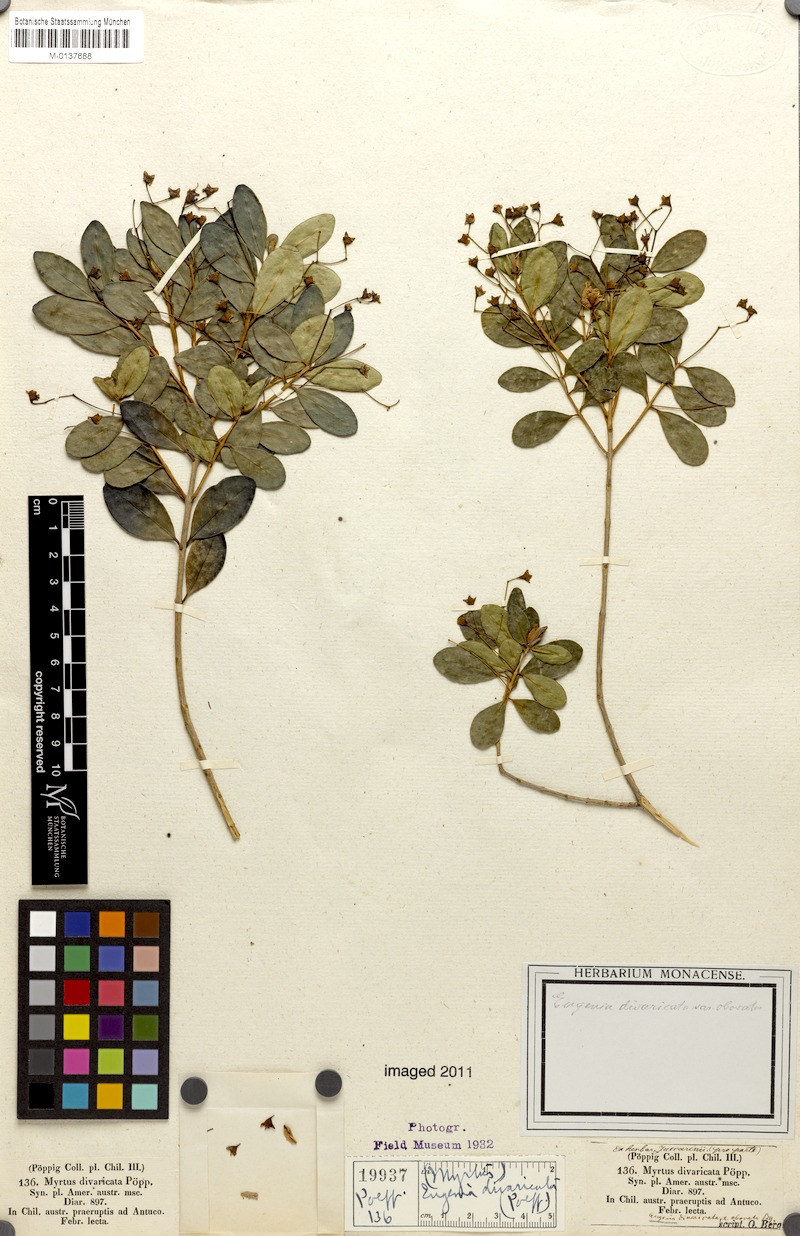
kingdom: Plantae
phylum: Tracheophyta
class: Magnoliopsida
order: Myrtales
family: Myrtaceae
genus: Blepharocalyx
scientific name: Blepharocalyx cruckshanksii
